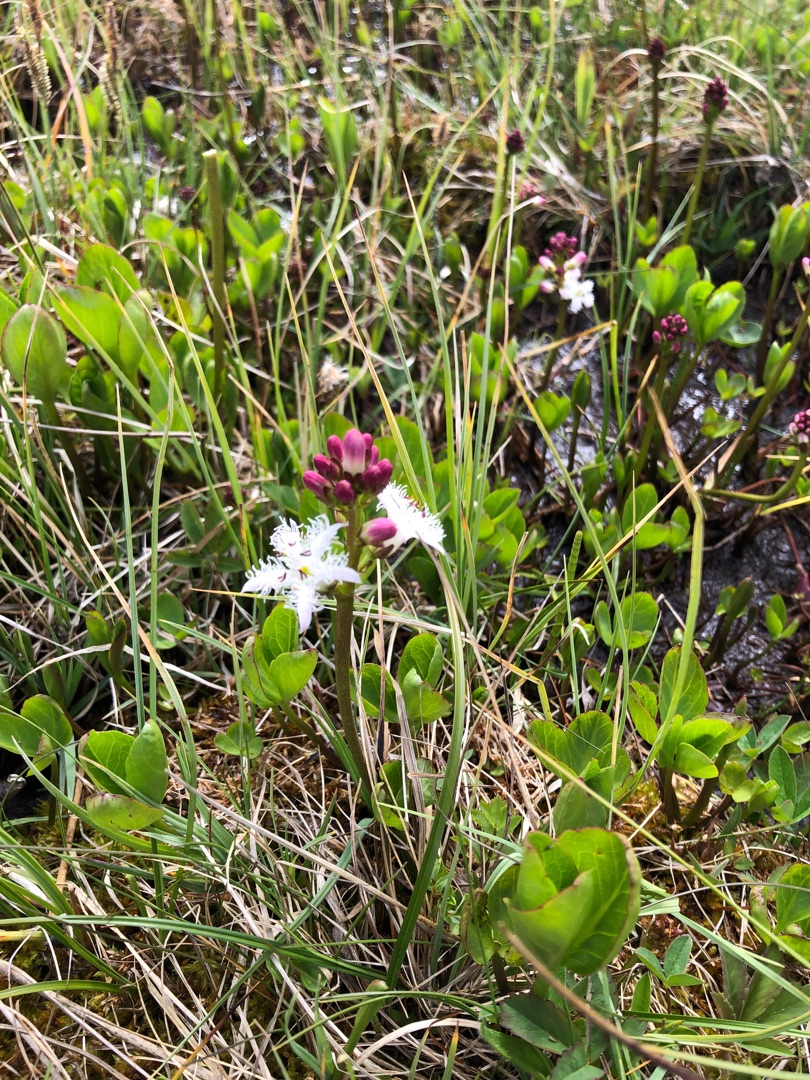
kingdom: Plantae
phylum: Tracheophyta
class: Magnoliopsida
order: Asterales
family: Menyanthaceae
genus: Menyanthes
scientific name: Menyanthes trifoliata
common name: Bukkeblad
